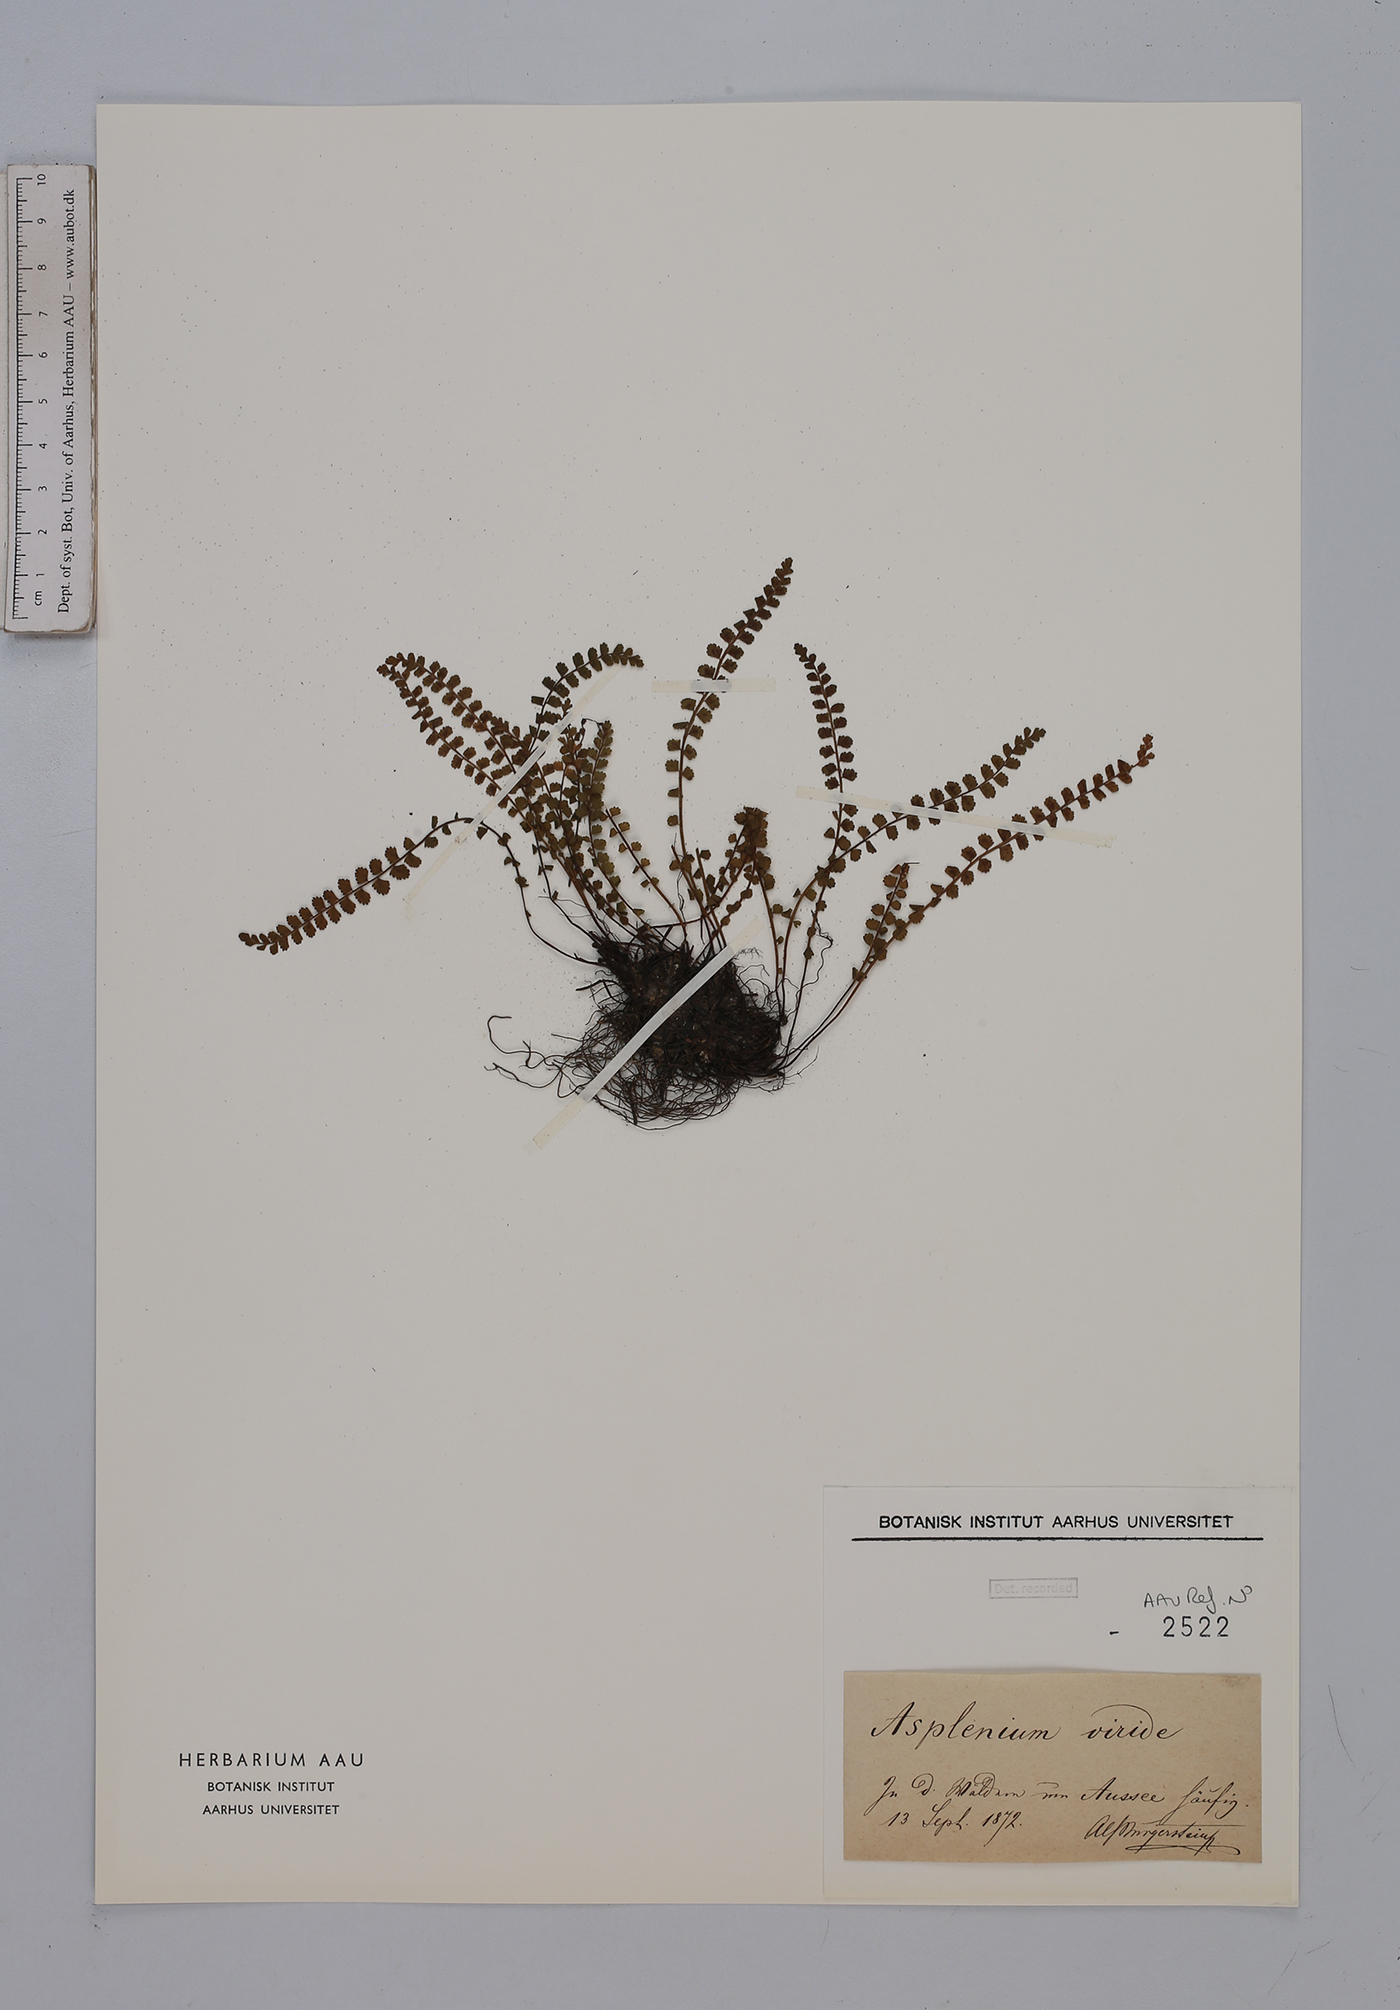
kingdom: Plantae
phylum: Tracheophyta
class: Polypodiopsida
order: Polypodiales
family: Aspleniaceae
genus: Asplenium
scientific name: Asplenium viride
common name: Green spleenwort
